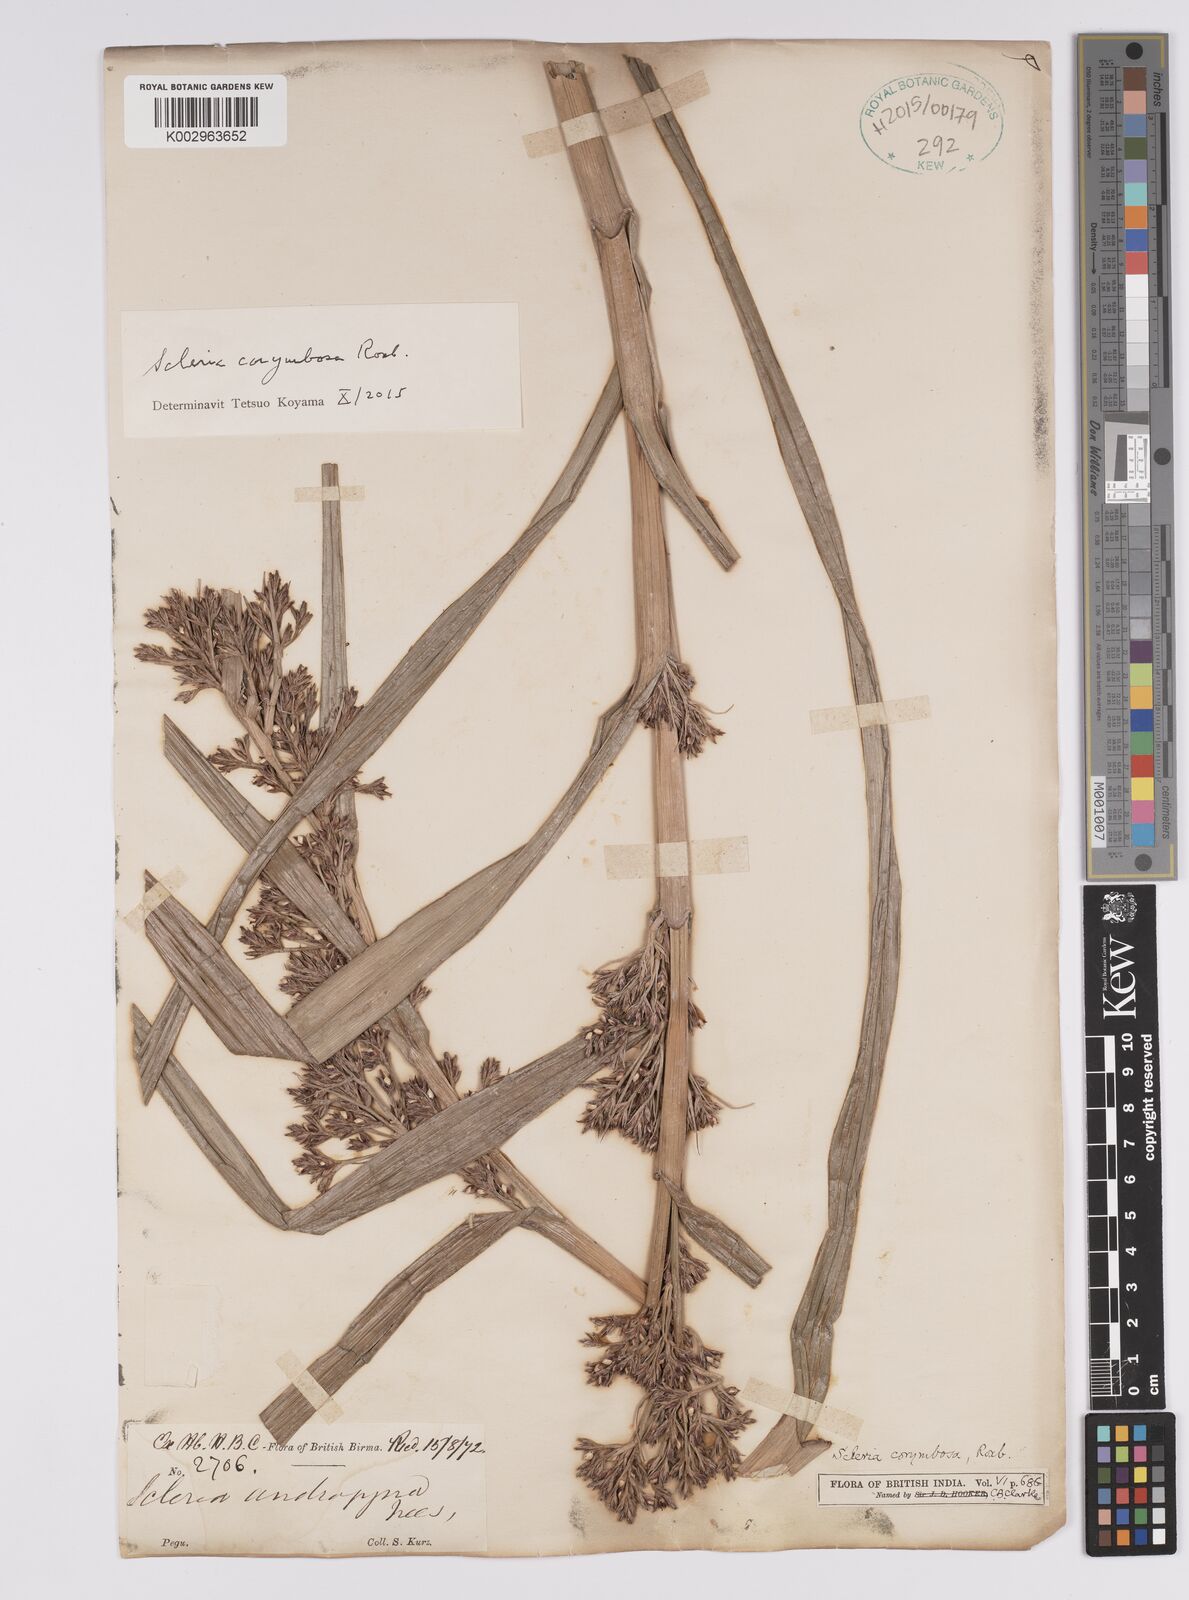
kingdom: Plantae
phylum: Tracheophyta
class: Liliopsida
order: Poales
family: Cyperaceae
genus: Scleria
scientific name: Scleria corymbosa
